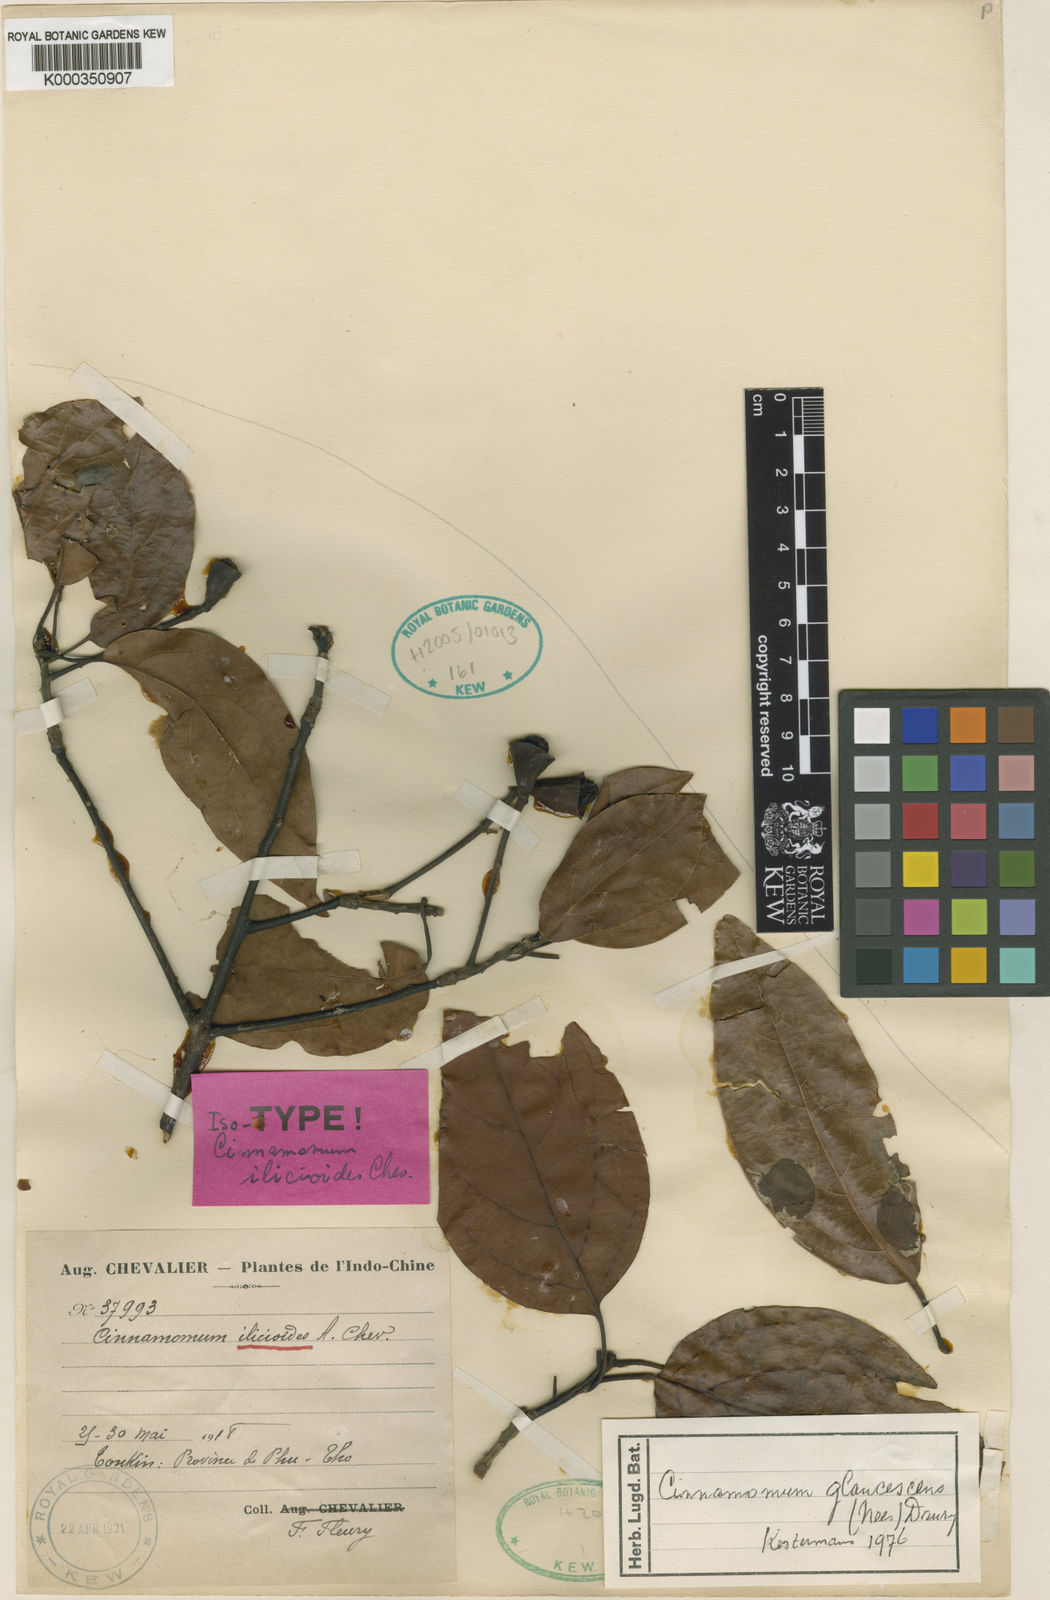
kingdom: Plantae
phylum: Tracheophyta
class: Magnoliopsida
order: Laurales
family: Lauraceae
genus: Cinnamomum
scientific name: Cinnamomum glaucescens
